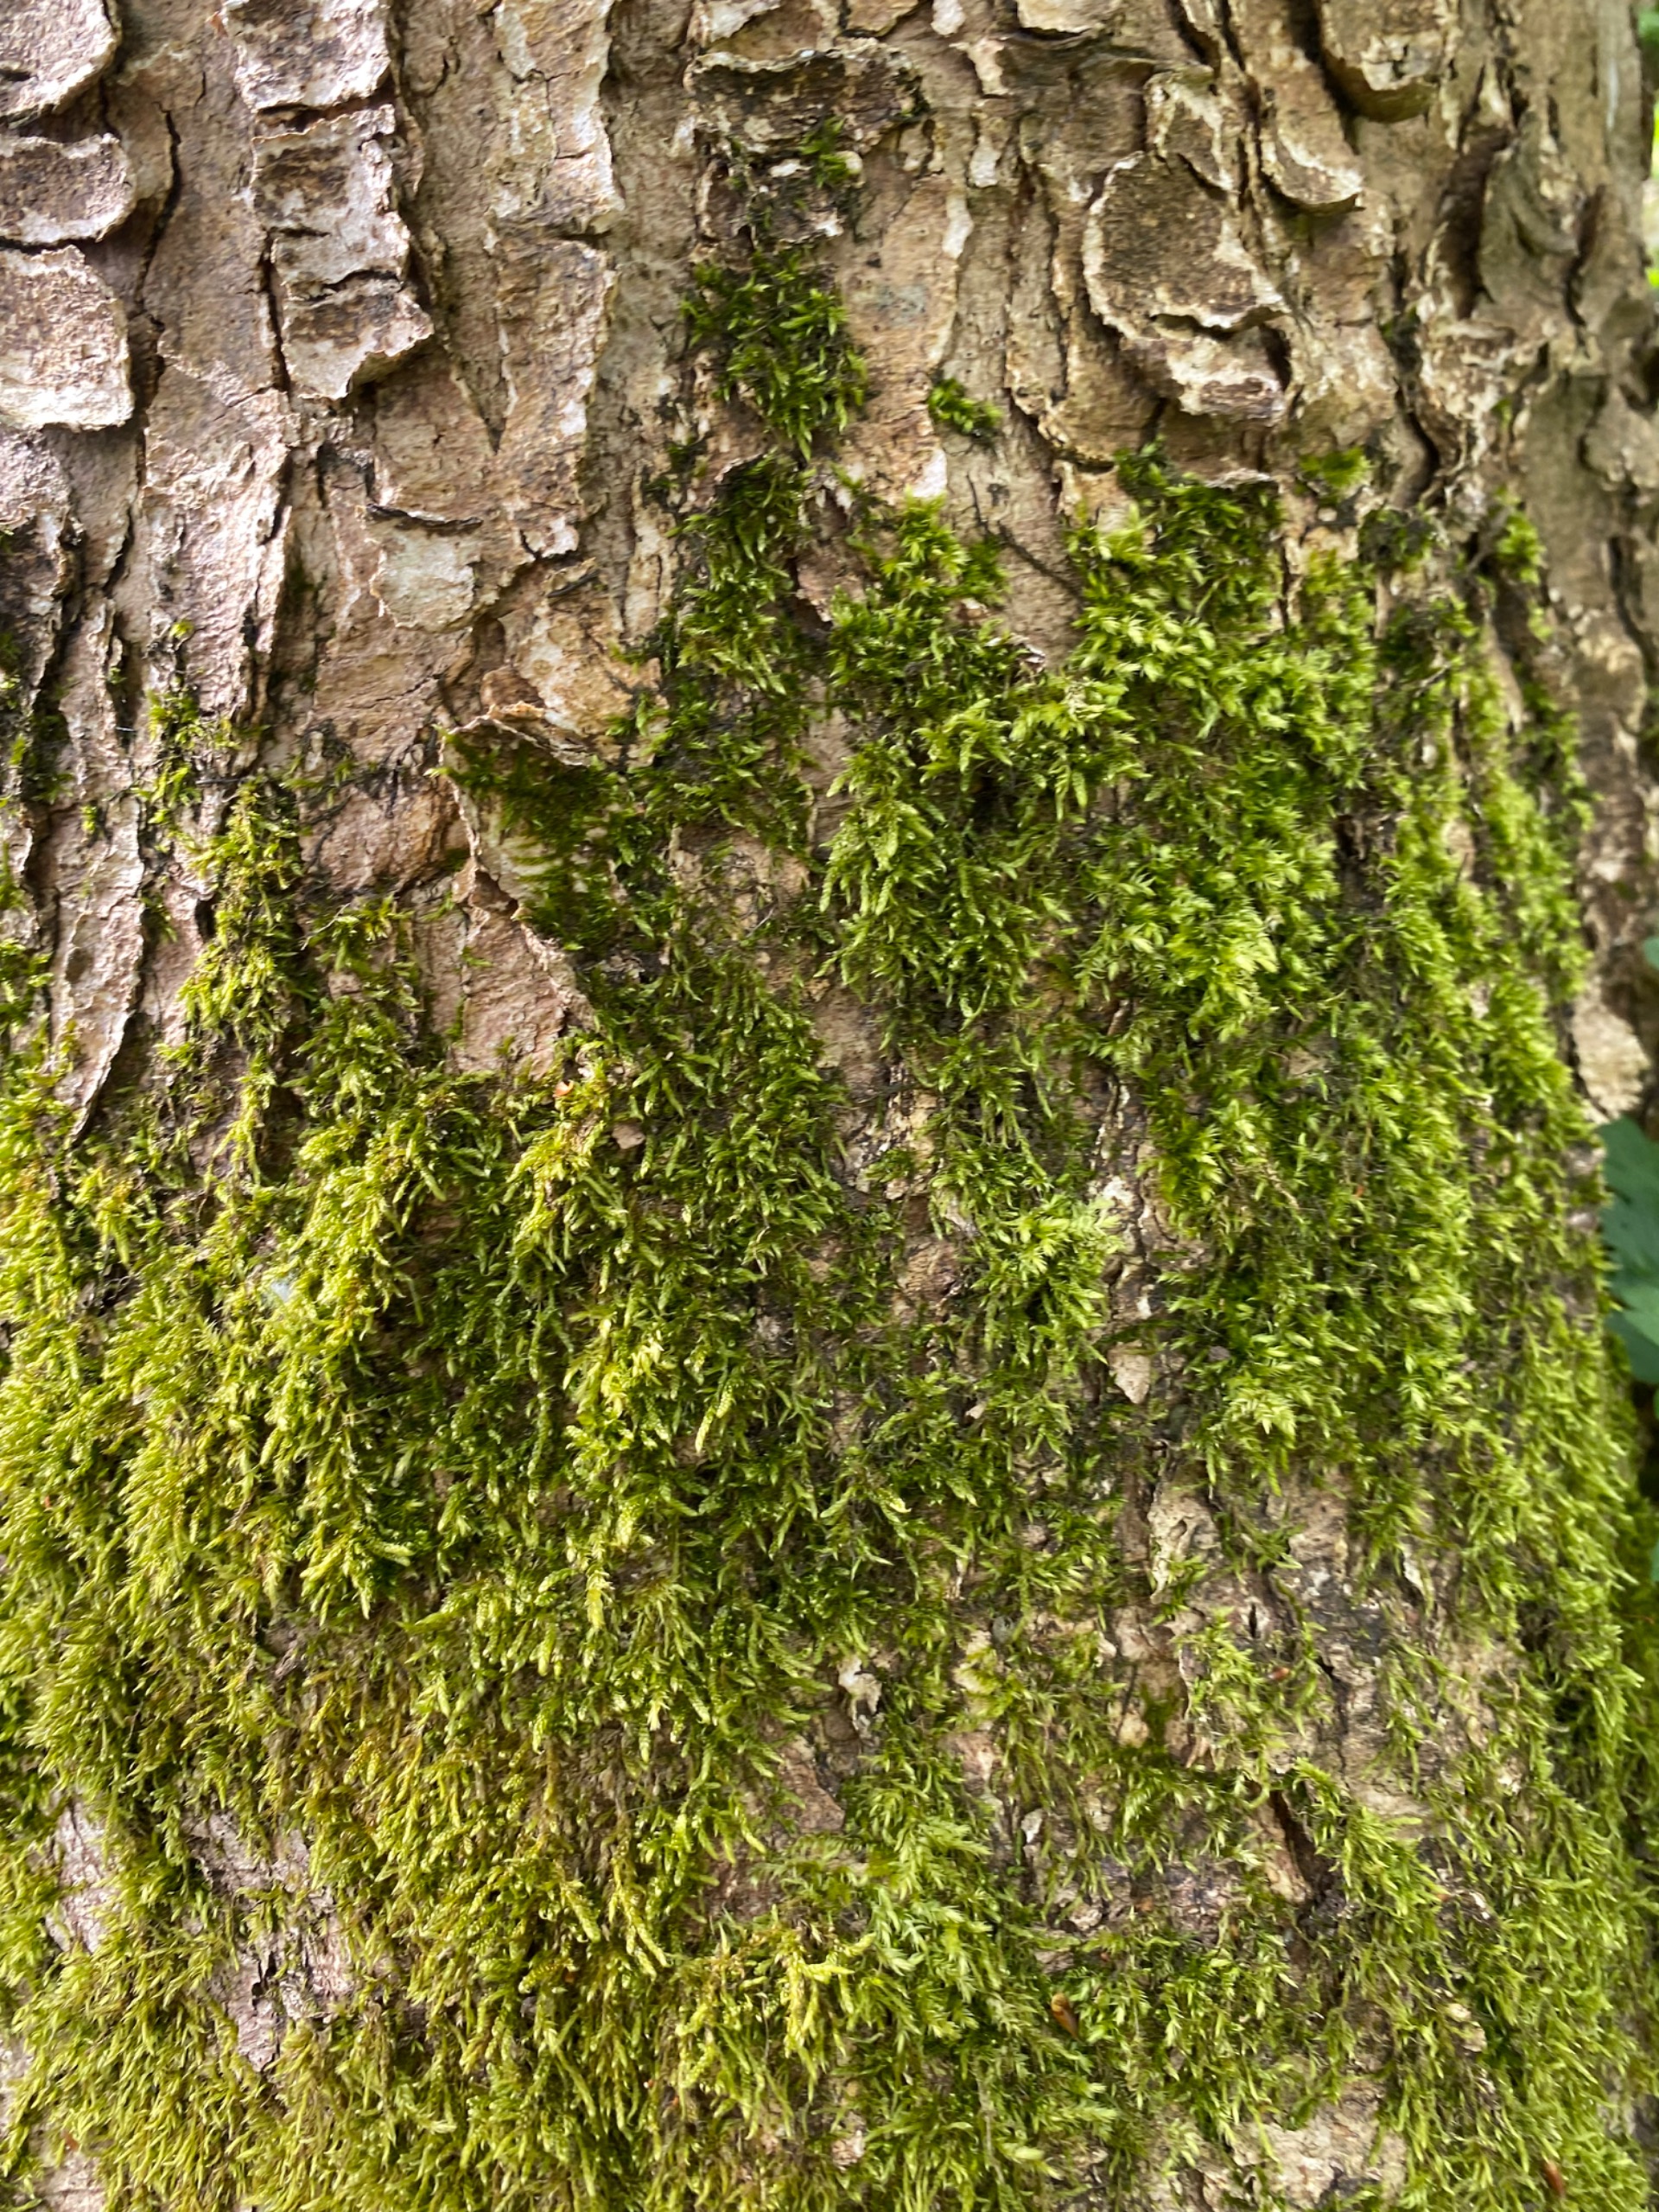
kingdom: Plantae
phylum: Bryophyta
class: Bryopsida
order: Hypnales
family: Hypnaceae
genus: Hypnum
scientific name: Hypnum
